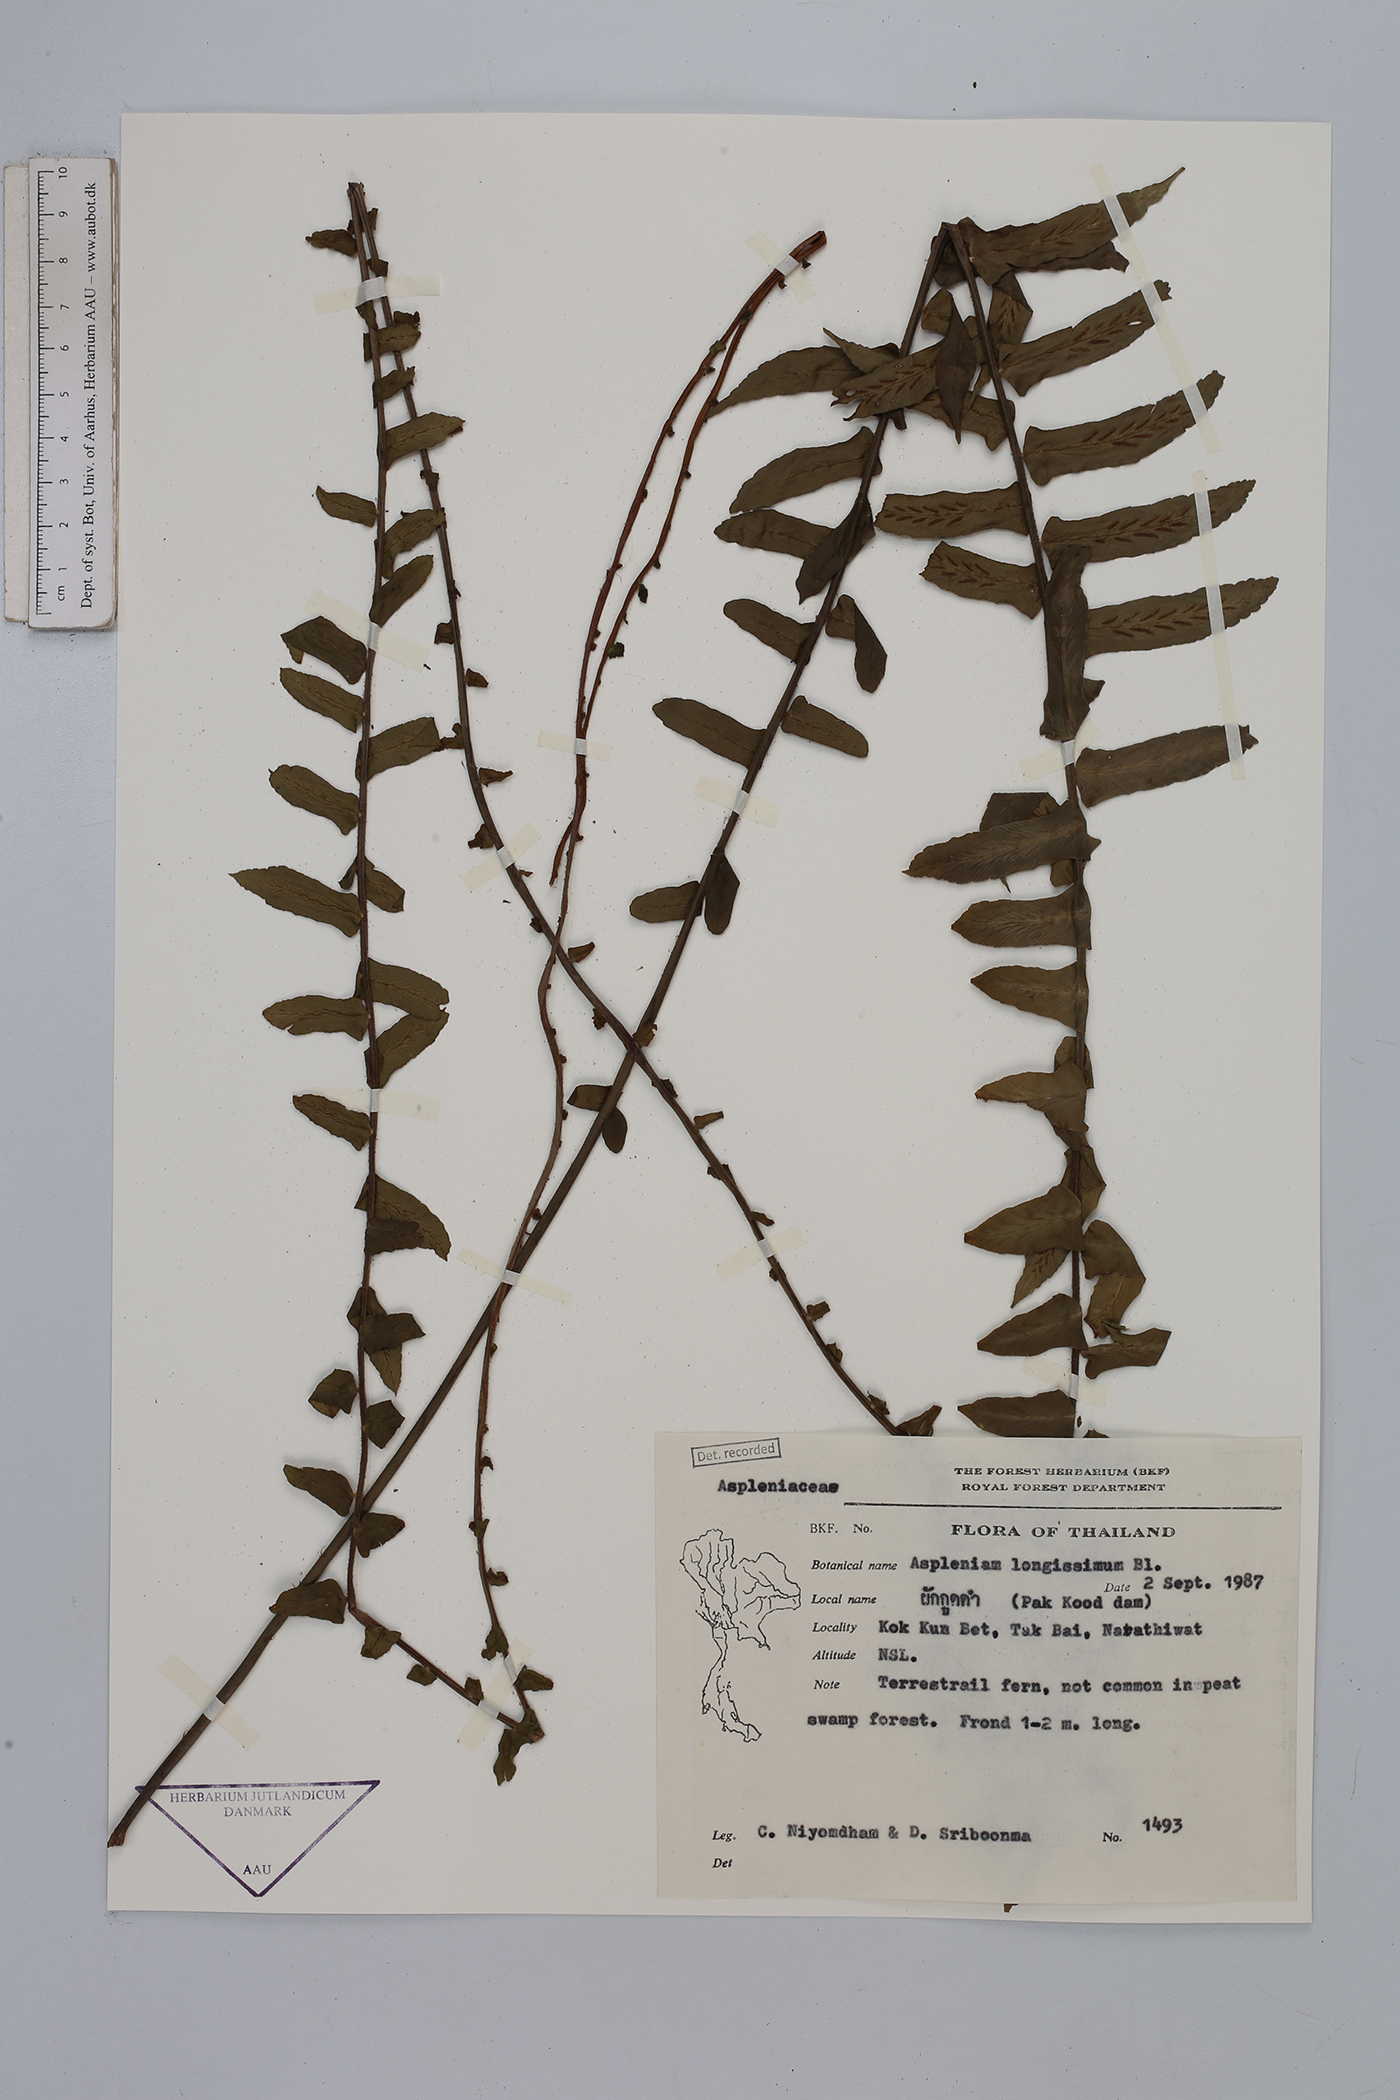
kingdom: Plantae
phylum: Tracheophyta
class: Polypodiopsida
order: Polypodiales
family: Aspleniaceae
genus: Asplenium
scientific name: Asplenium longissimum
